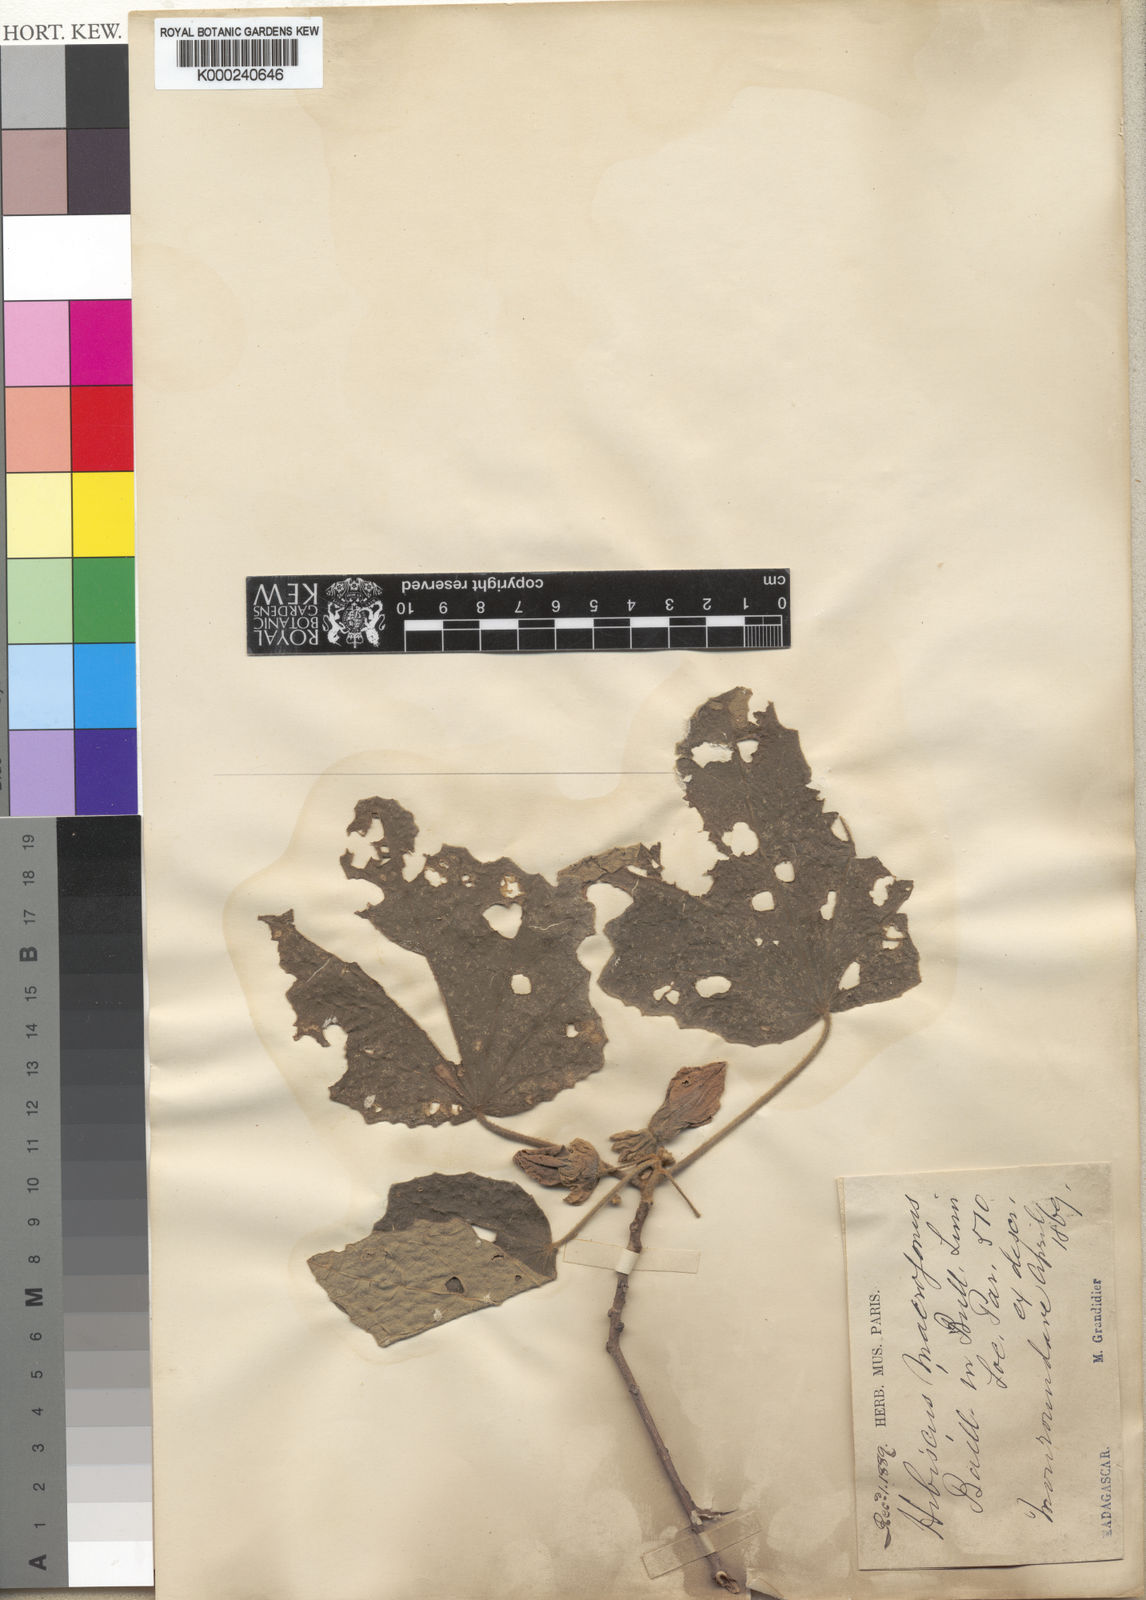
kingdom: Plantae
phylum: Tracheophyta
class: Magnoliopsida
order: Malvales
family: Malvaceae
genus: Hibiscus
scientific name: Hibiscus macrogonus
